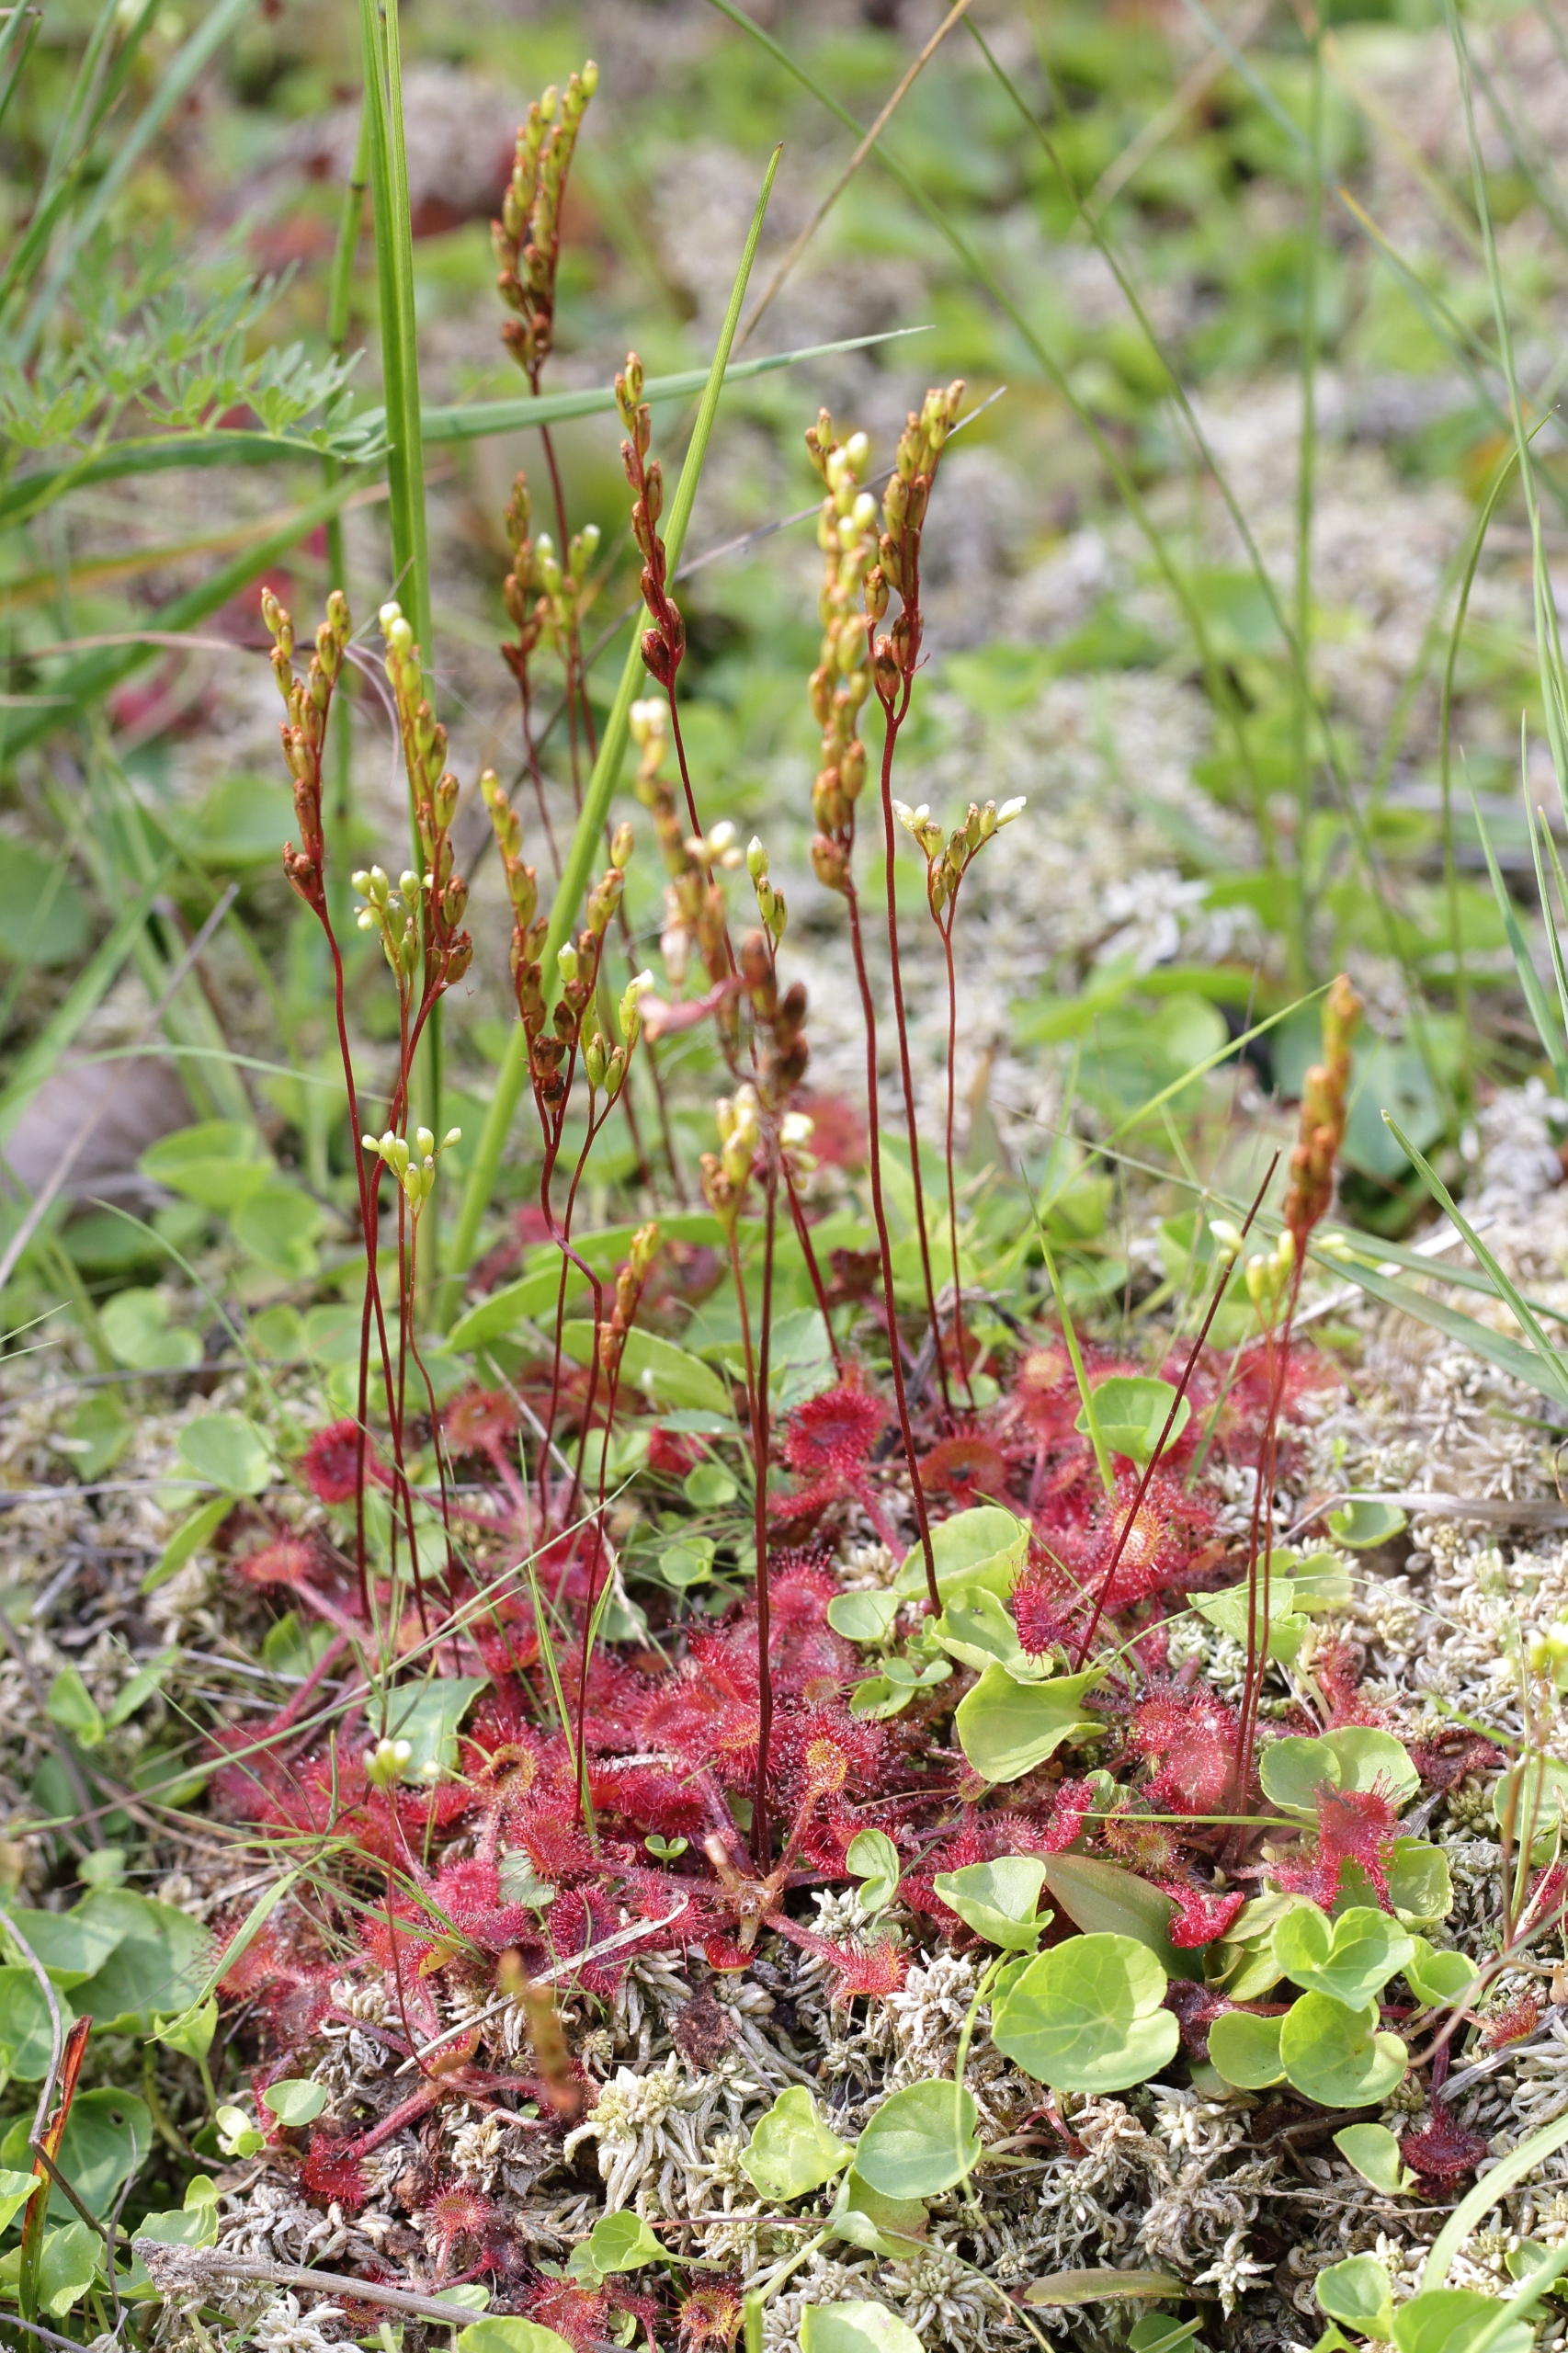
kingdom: Plantae
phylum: Tracheophyta
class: Magnoliopsida
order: Caryophyllales
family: Droseraceae
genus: Drosera
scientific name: Drosera rotundifolia
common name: Rundbladet soldug
